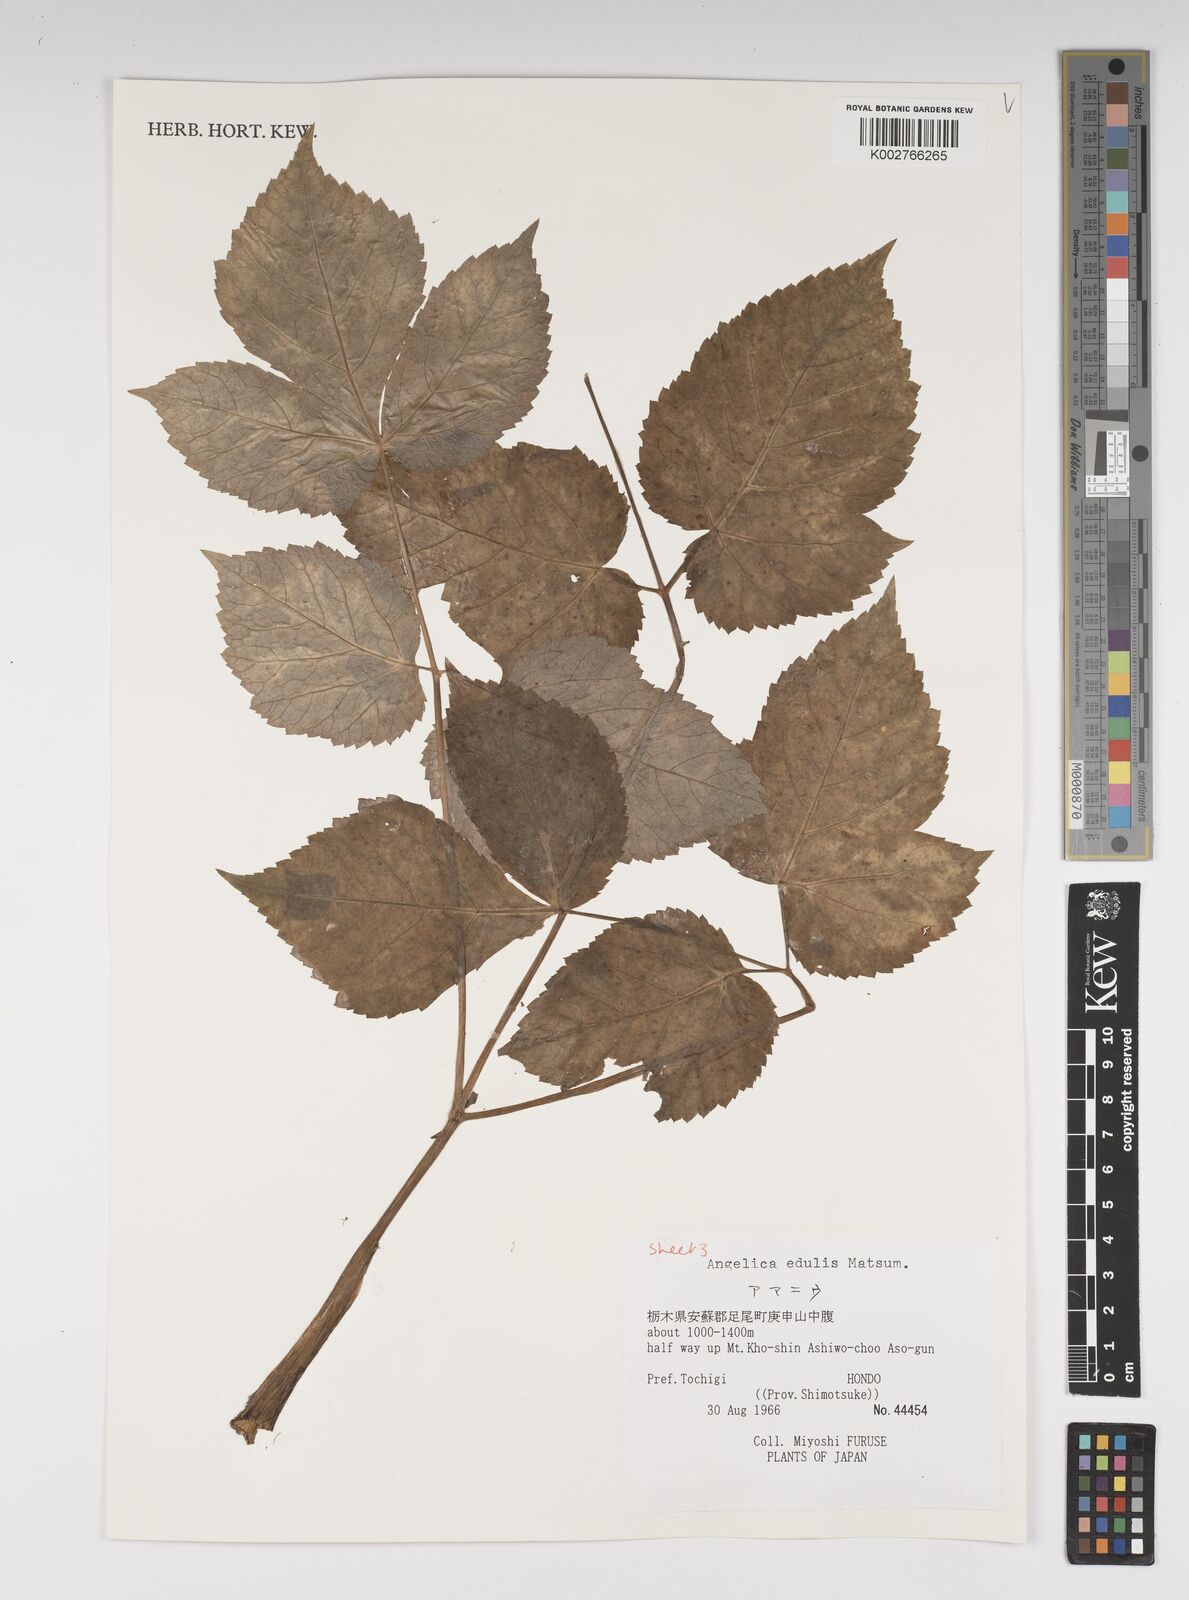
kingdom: Plantae
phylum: Tracheophyta
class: Magnoliopsida
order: Apiales
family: Apiaceae
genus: Angelica
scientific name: Angelica edulis
